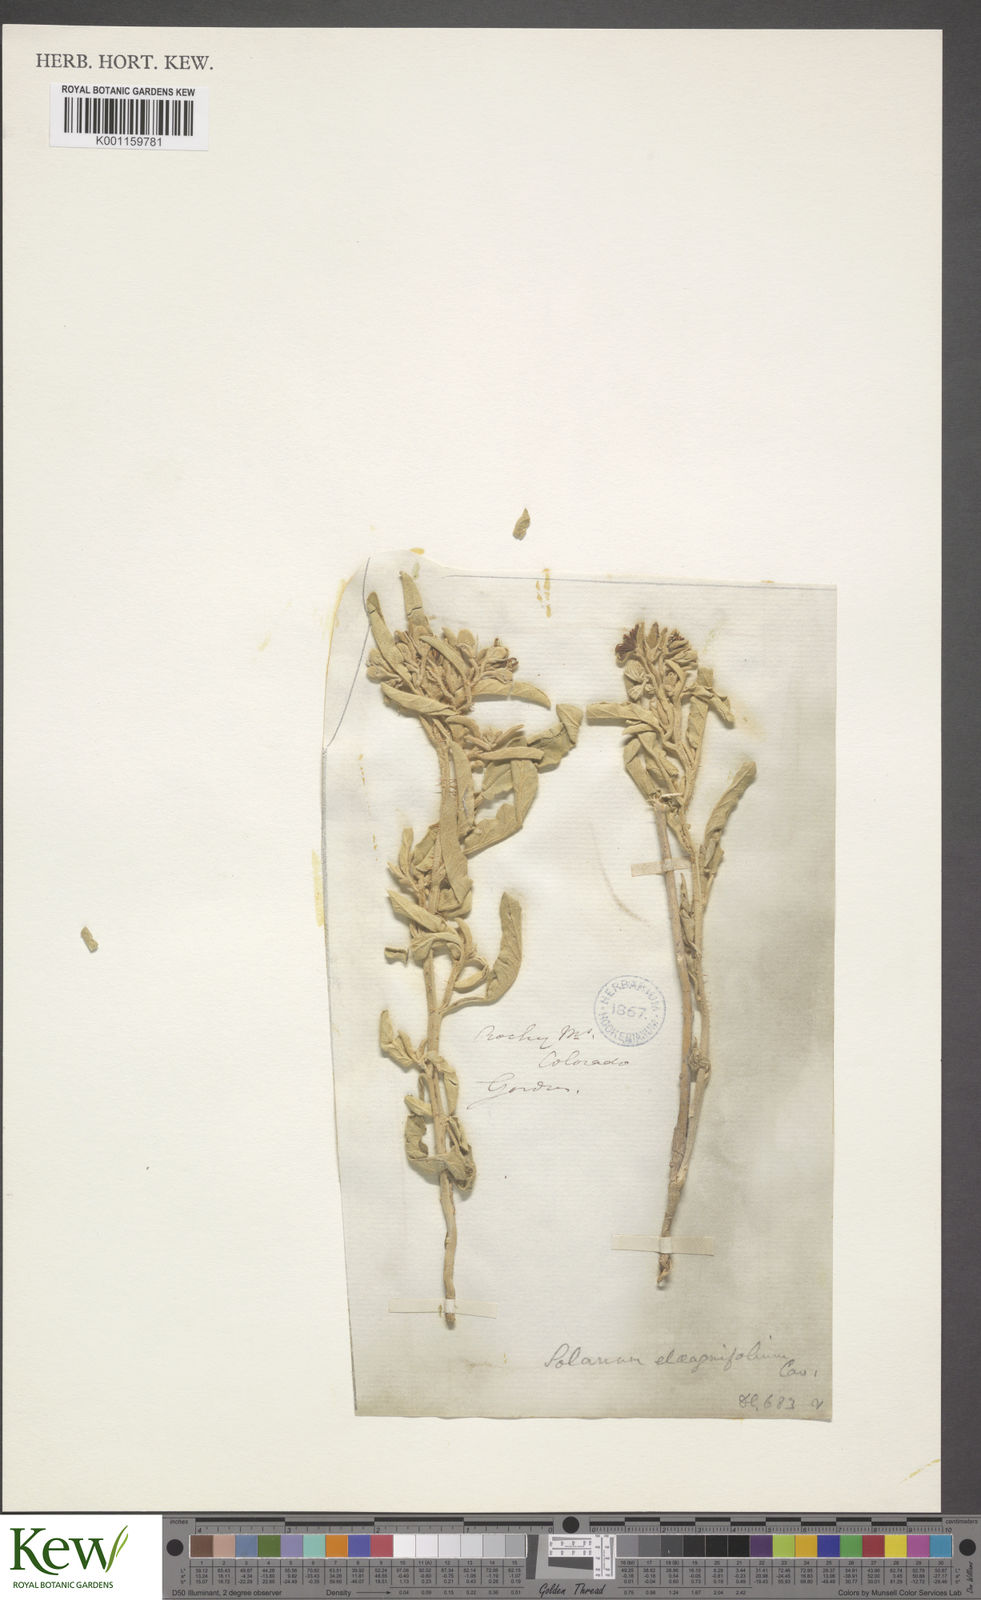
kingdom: Plantae
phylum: Tracheophyta
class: Magnoliopsida
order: Solanales
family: Solanaceae
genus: Solanum
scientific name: Solanum
